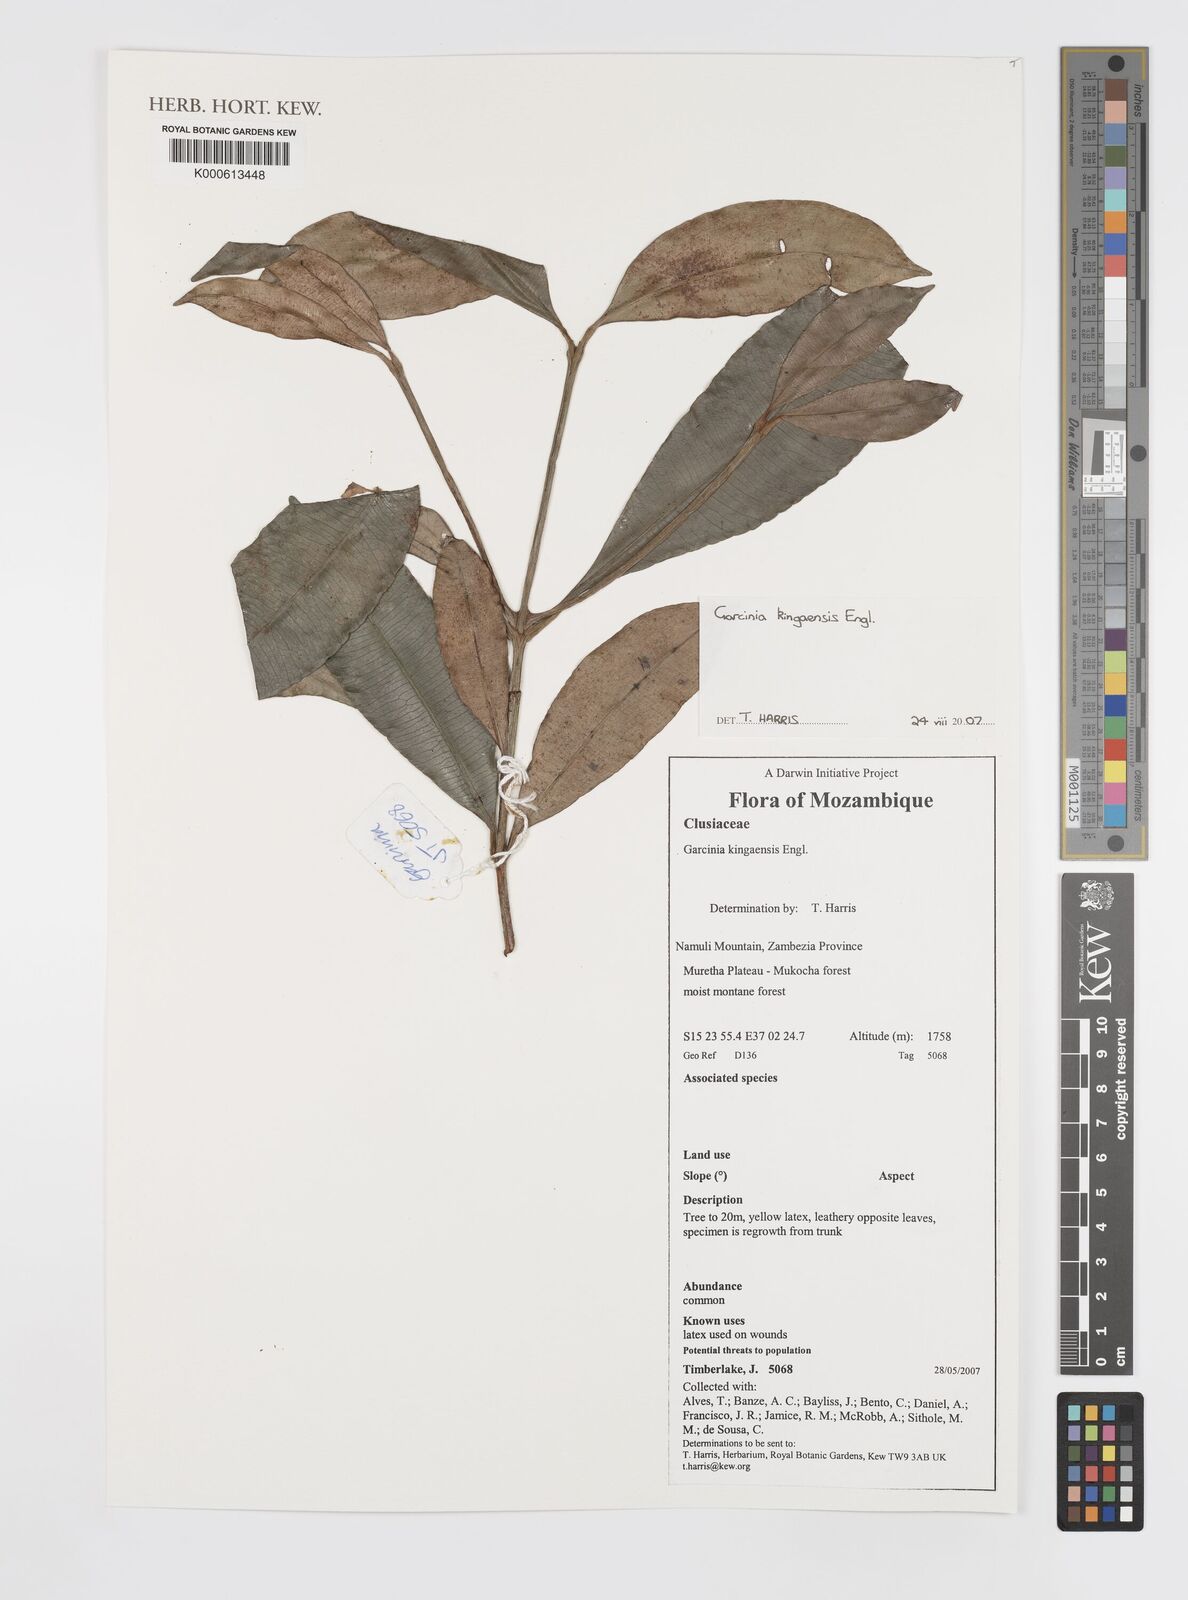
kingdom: Plantae
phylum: Tracheophyta
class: Magnoliopsida
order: Malpighiales
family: Clusiaceae
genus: Garcinia
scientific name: Garcinia kingaensis
